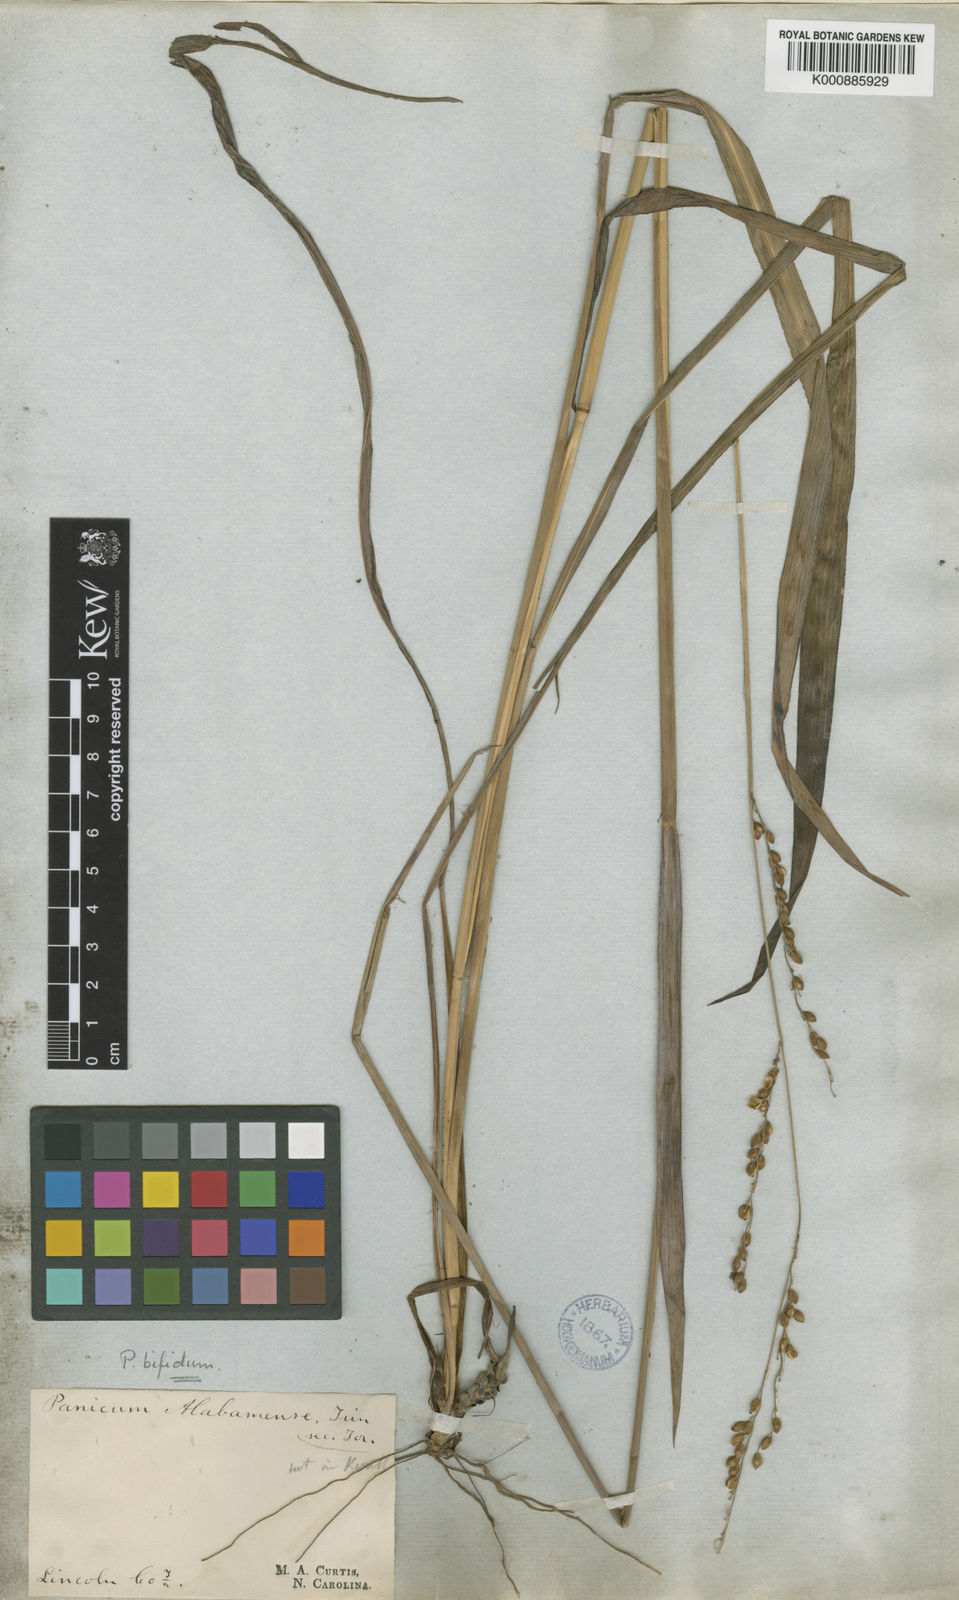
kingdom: Plantae
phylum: Tracheophyta
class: Liliopsida
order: Poales
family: Poaceae
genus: Paspalum
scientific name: Paspalum bifidum
